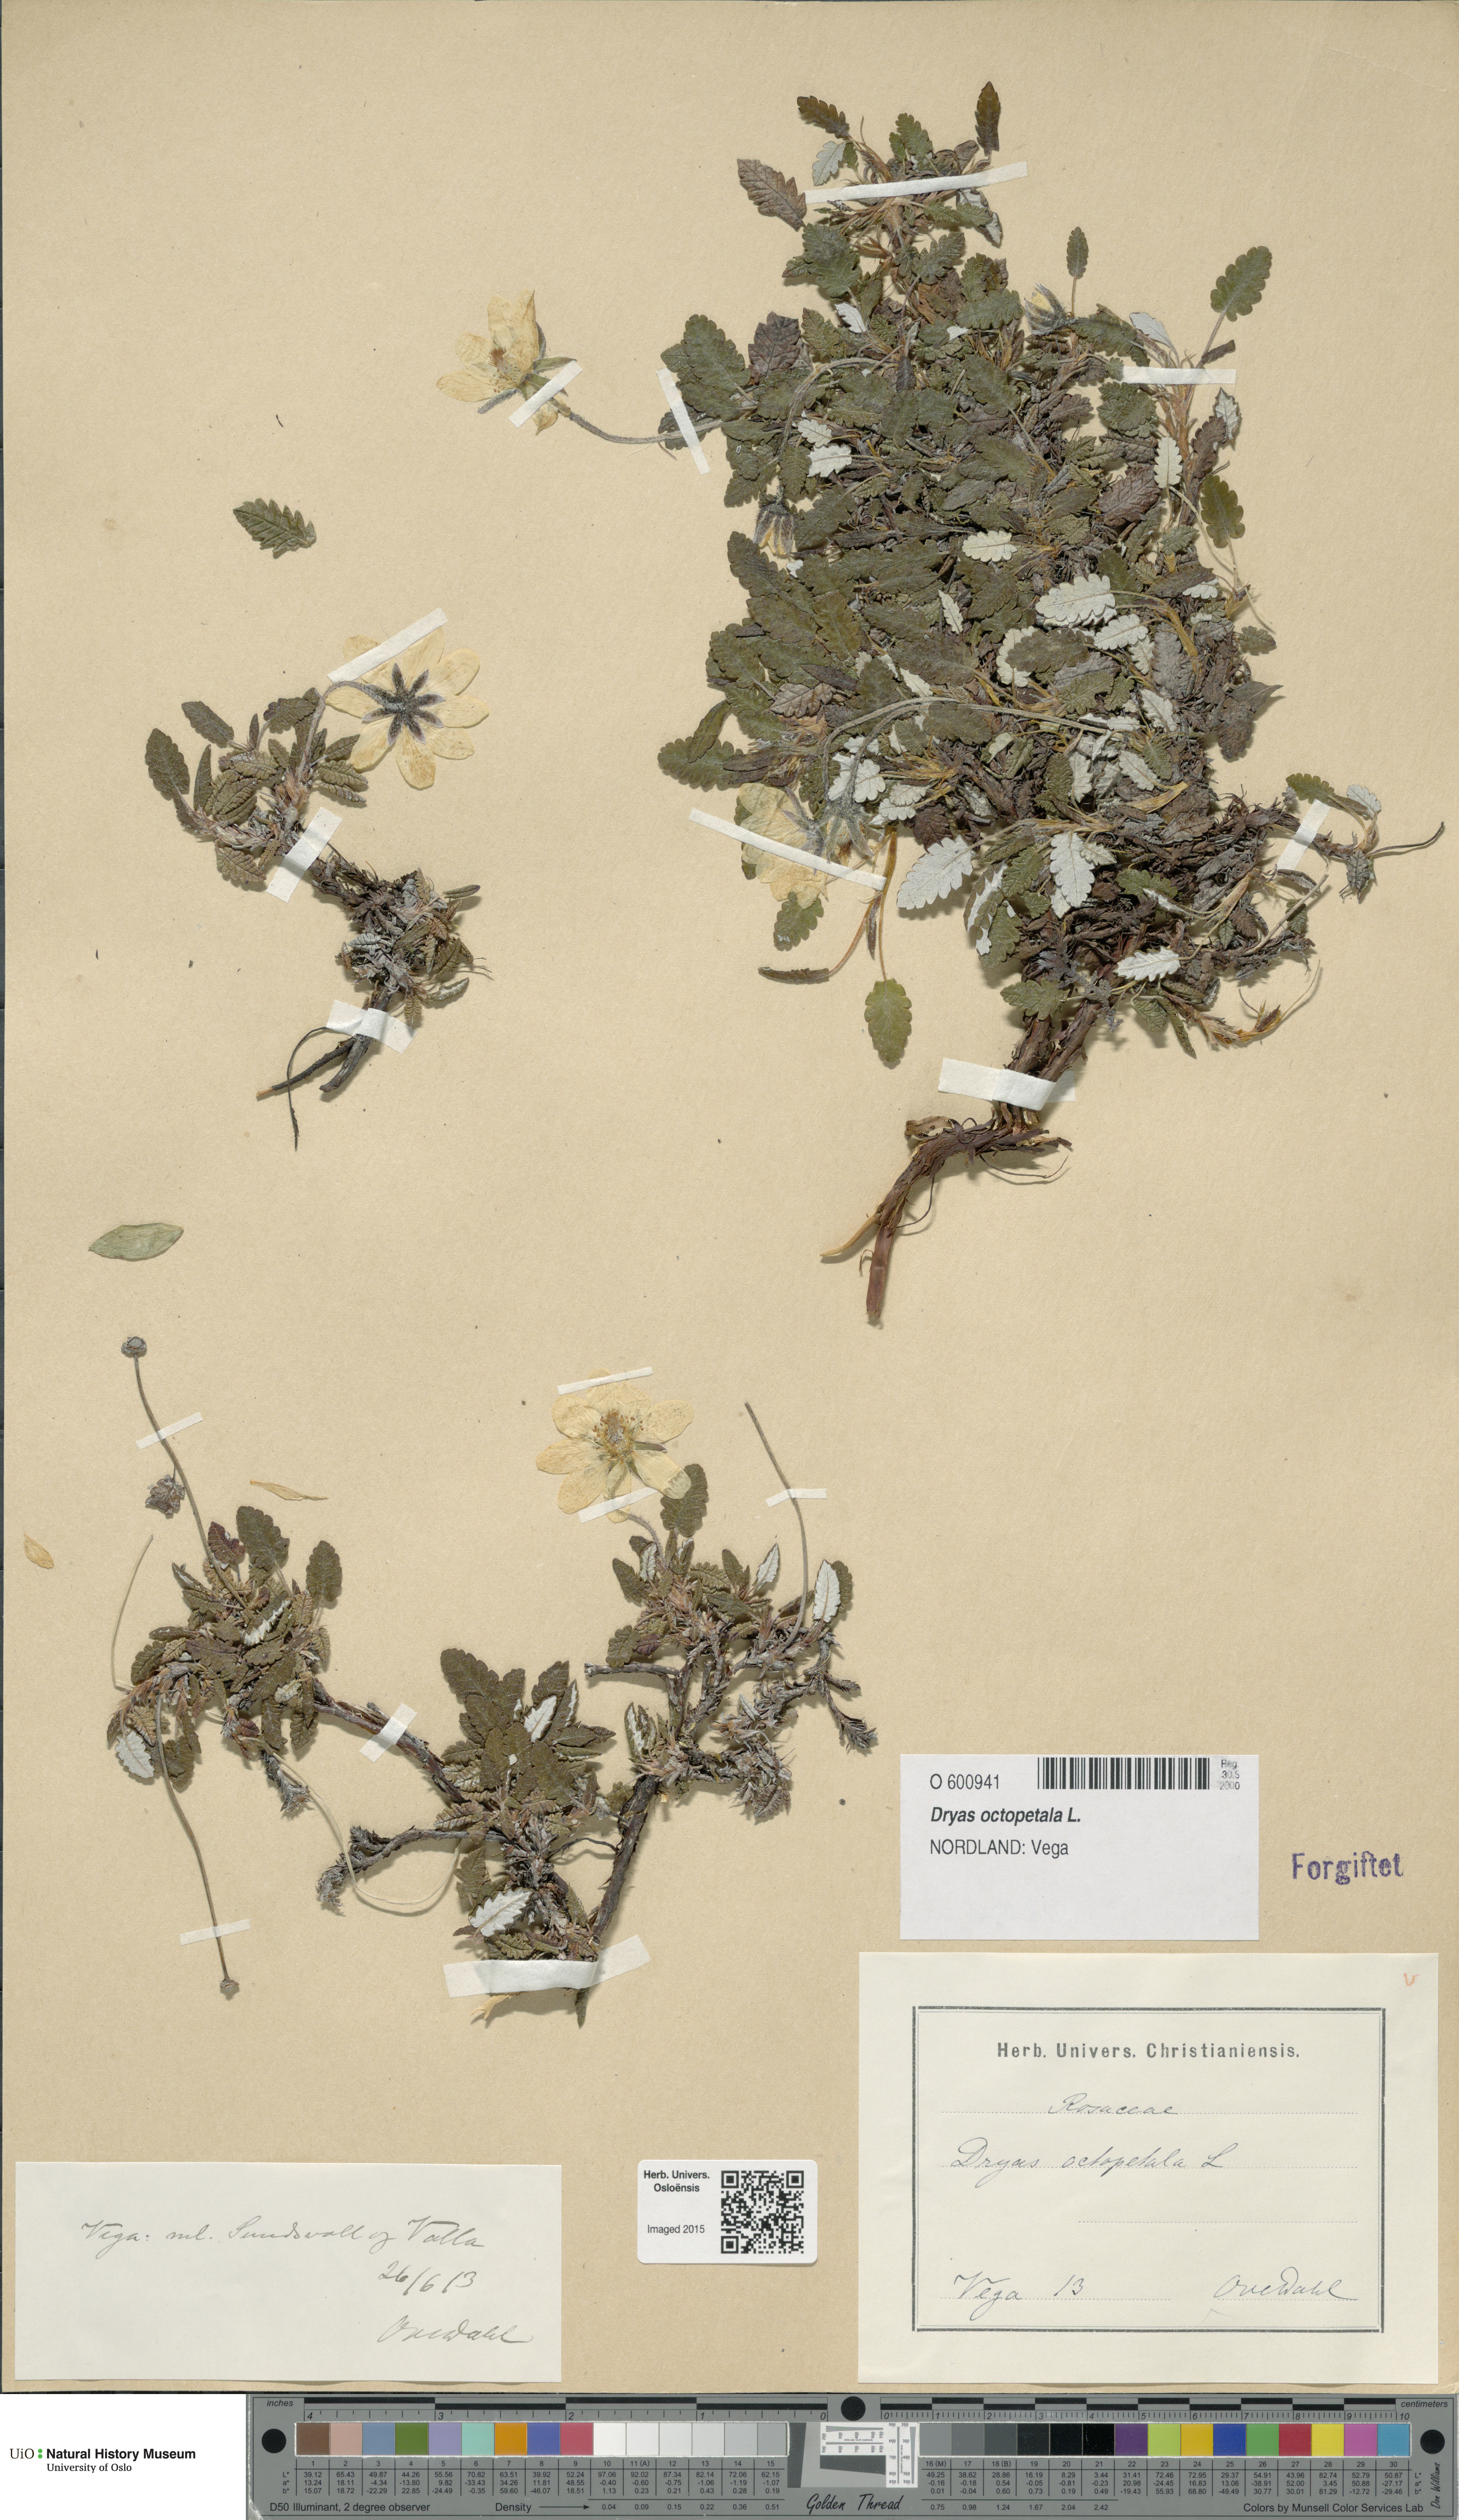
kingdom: Plantae
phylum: Tracheophyta
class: Magnoliopsida
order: Rosales
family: Rosaceae
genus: Dryas
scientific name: Dryas octopetala
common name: Eight-petal mountain-avens
